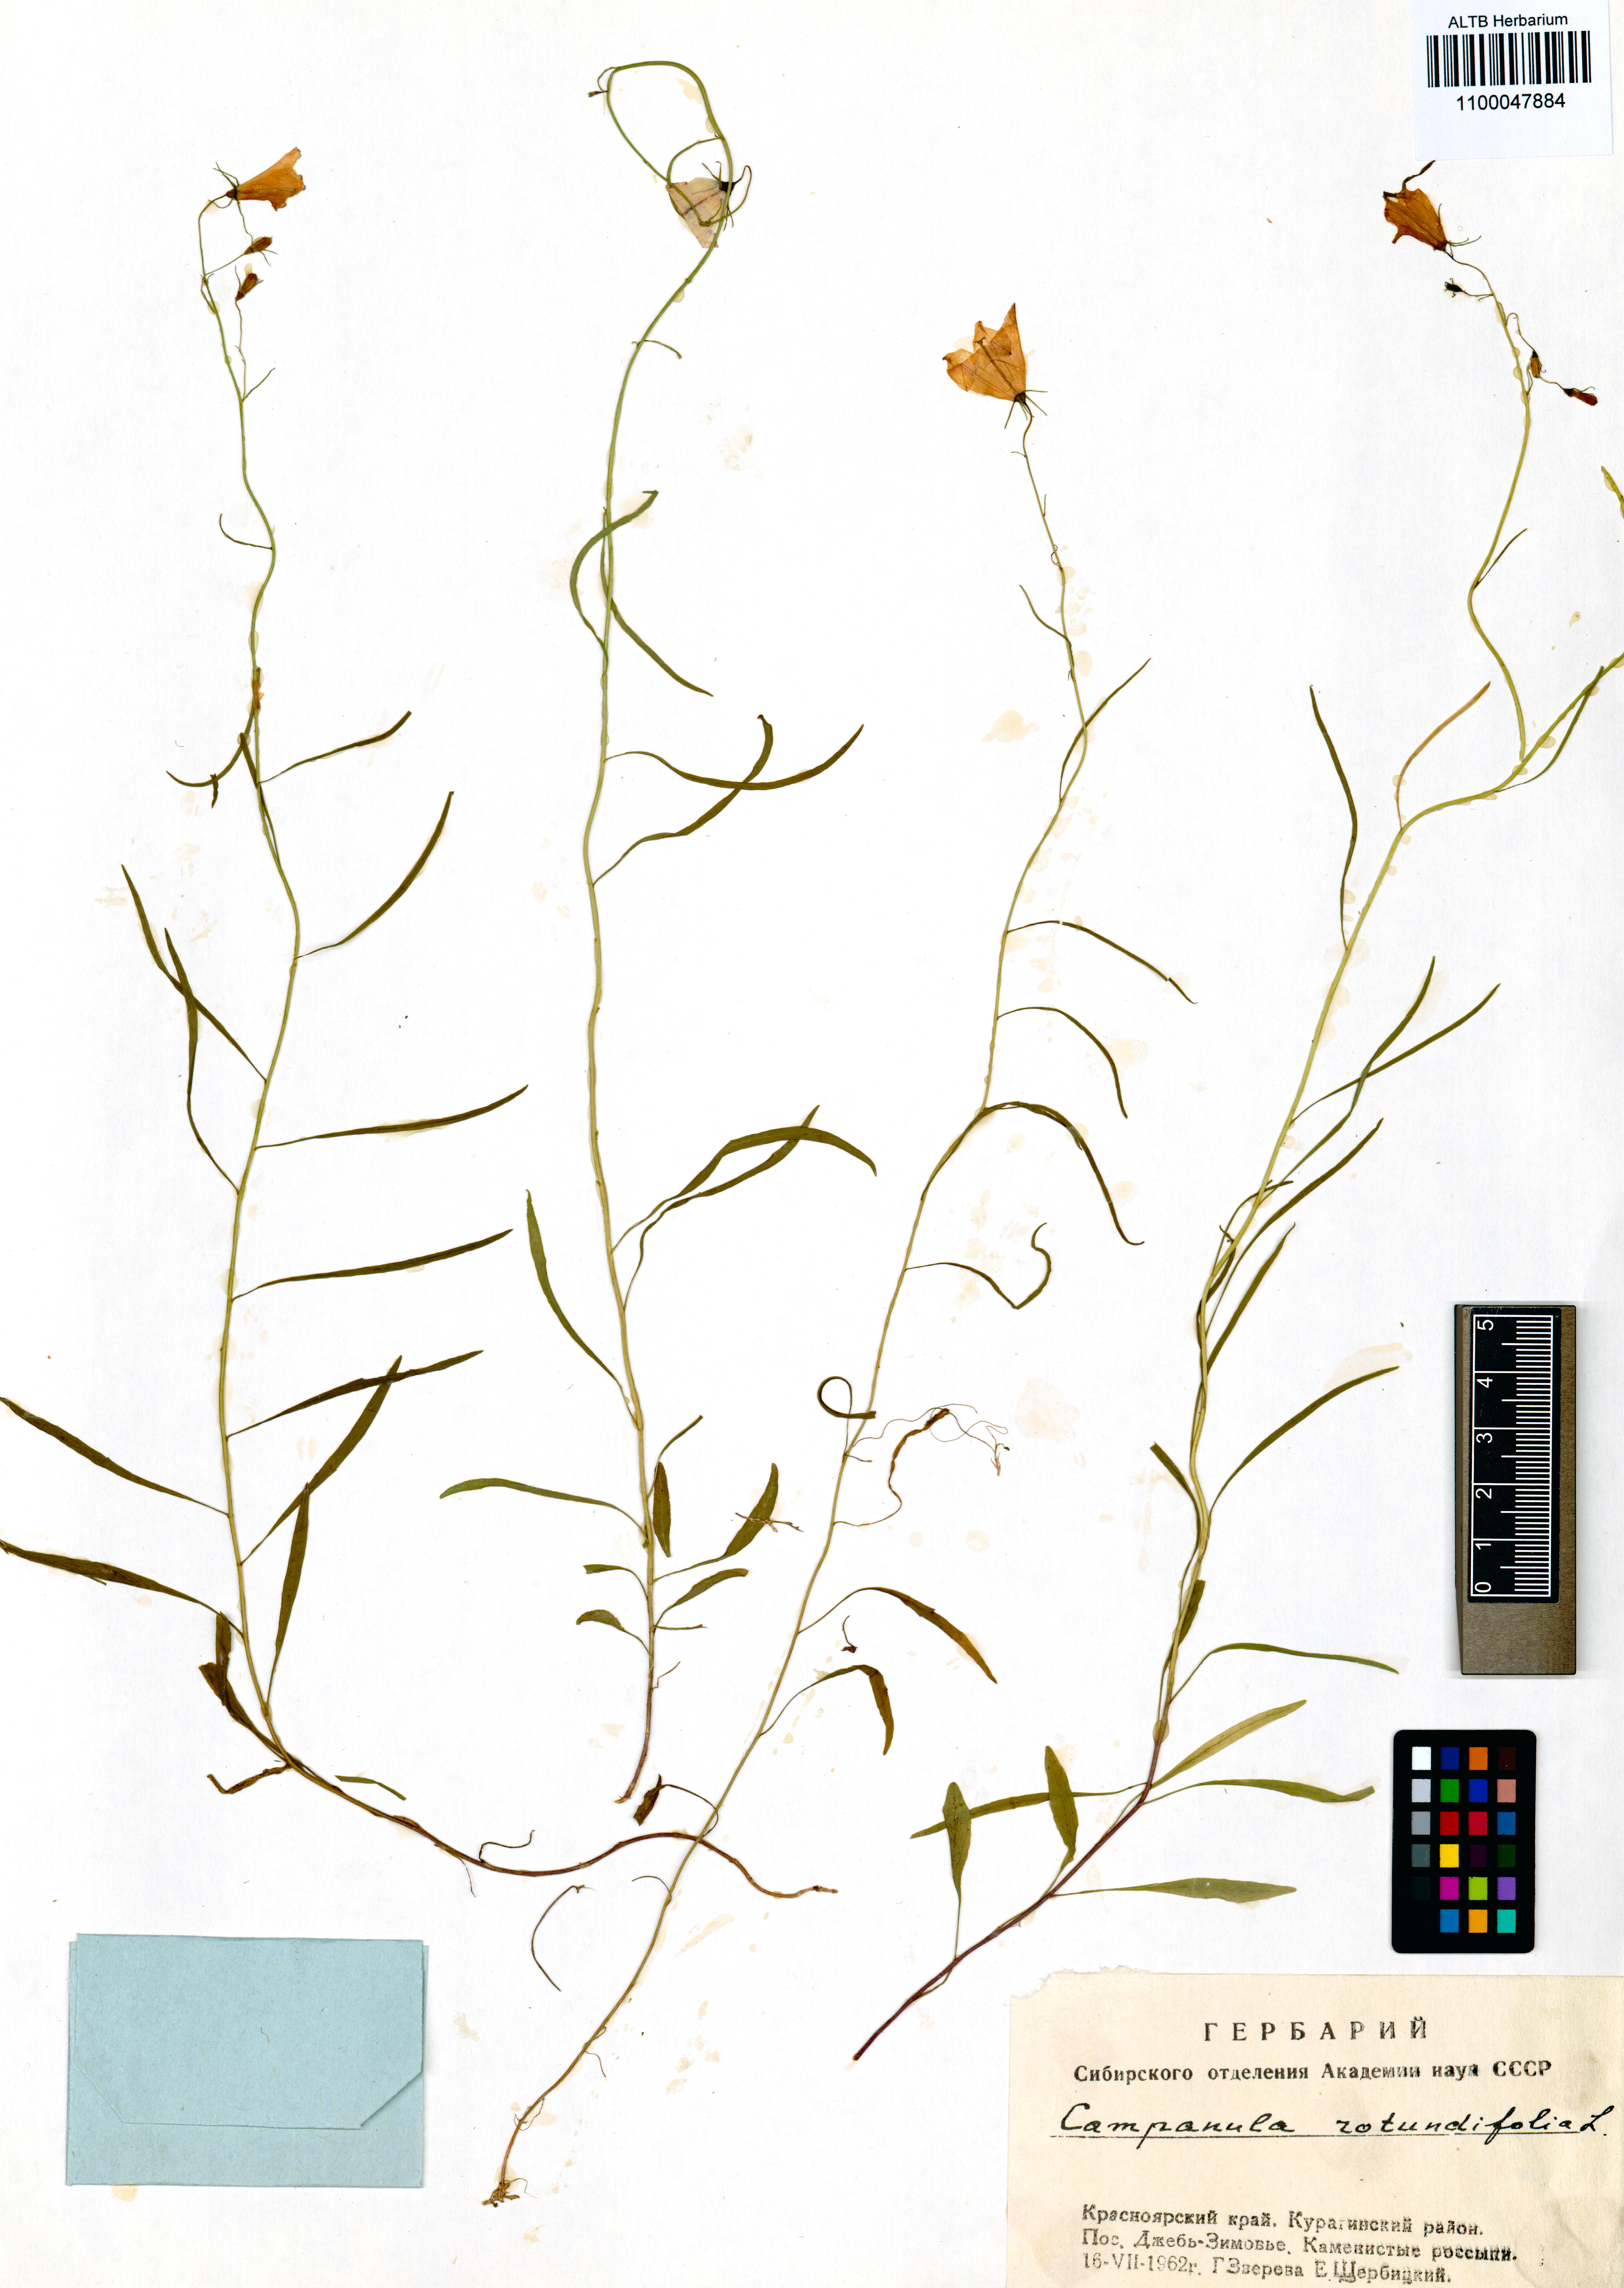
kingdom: Plantae
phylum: Tracheophyta
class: Magnoliopsida
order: Asterales
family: Campanulaceae
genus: Campanula
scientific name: Campanula rotundifolia
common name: Harebell
